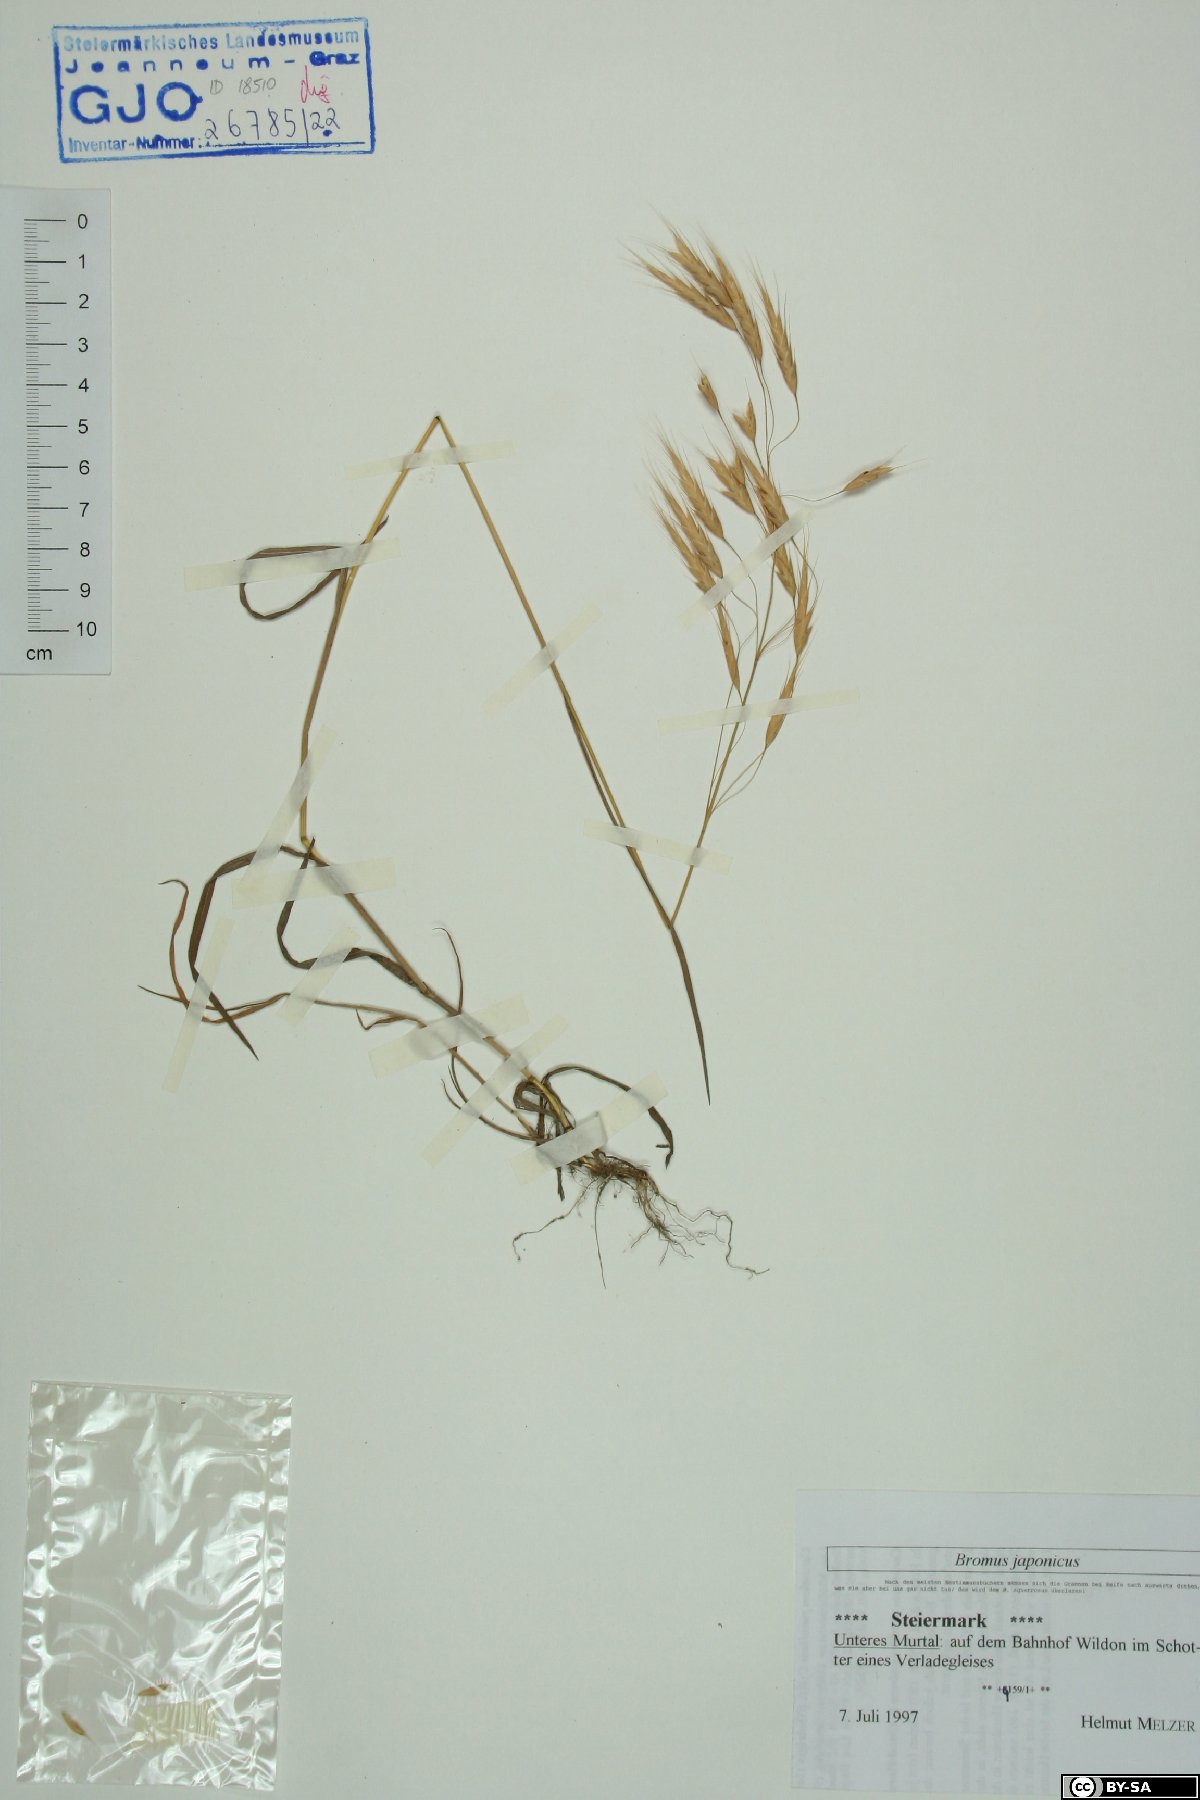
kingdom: Plantae
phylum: Tracheophyta
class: Liliopsida
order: Poales
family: Poaceae
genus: Bromus
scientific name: Bromus japonicus
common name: Japanese brome
